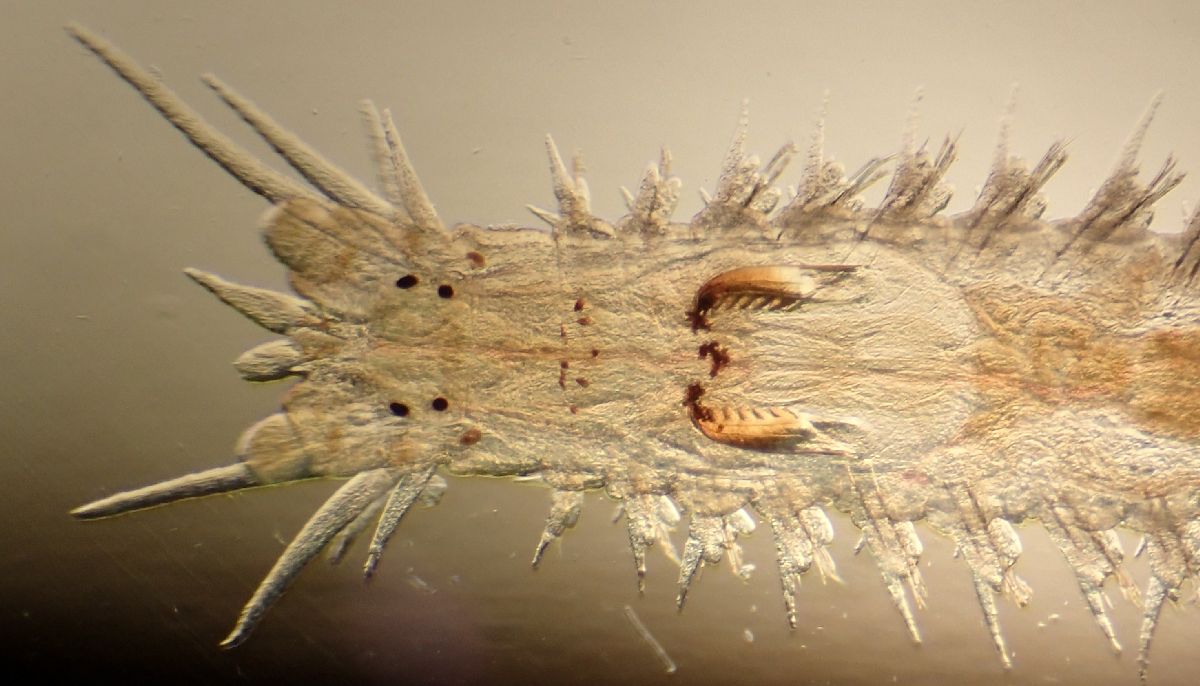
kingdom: Animalia
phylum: Annelida
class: Polychaeta
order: Phyllodocida
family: Nereididae
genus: Platynereis
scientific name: Platynereis dumerilii
